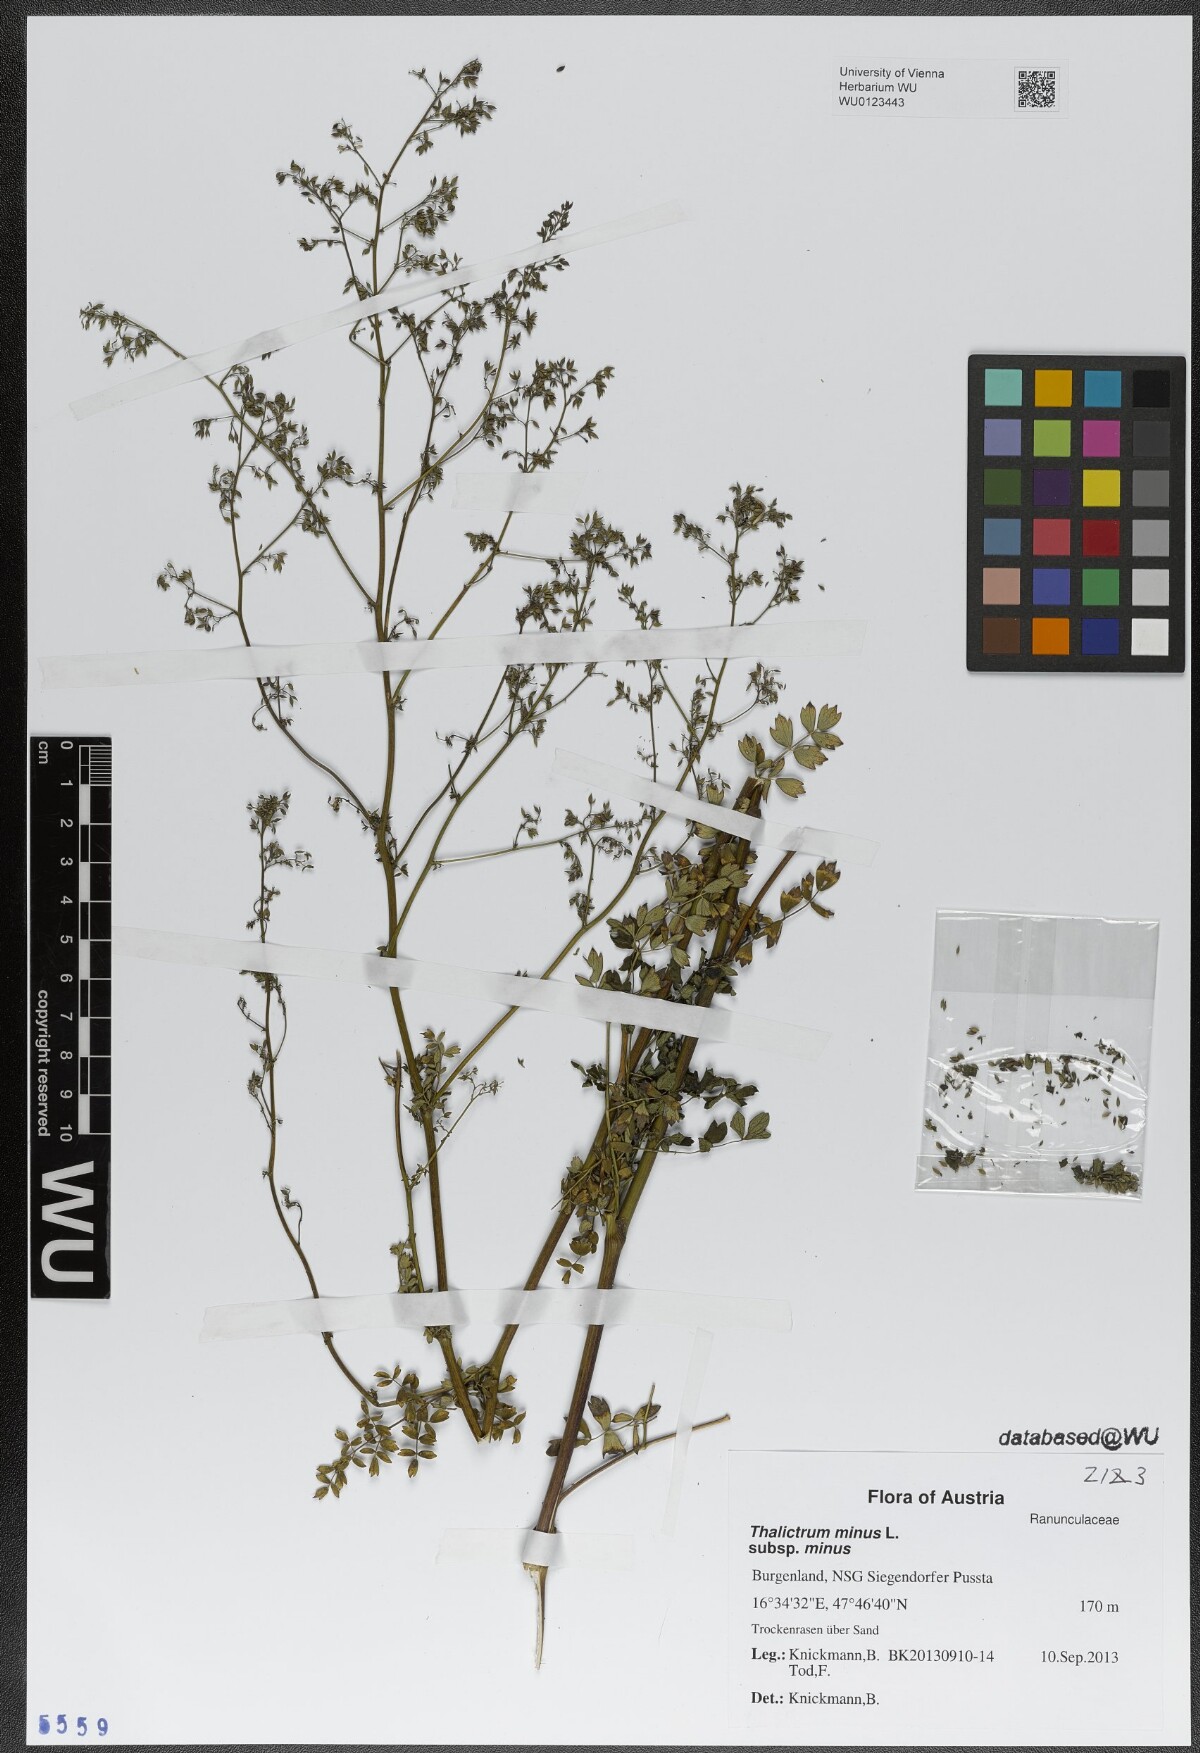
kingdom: Plantae
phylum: Tracheophyta
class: Magnoliopsida
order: Ranunculales
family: Ranunculaceae
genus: Thalictrum
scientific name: Thalictrum minus
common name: Lesser meadow-rue
